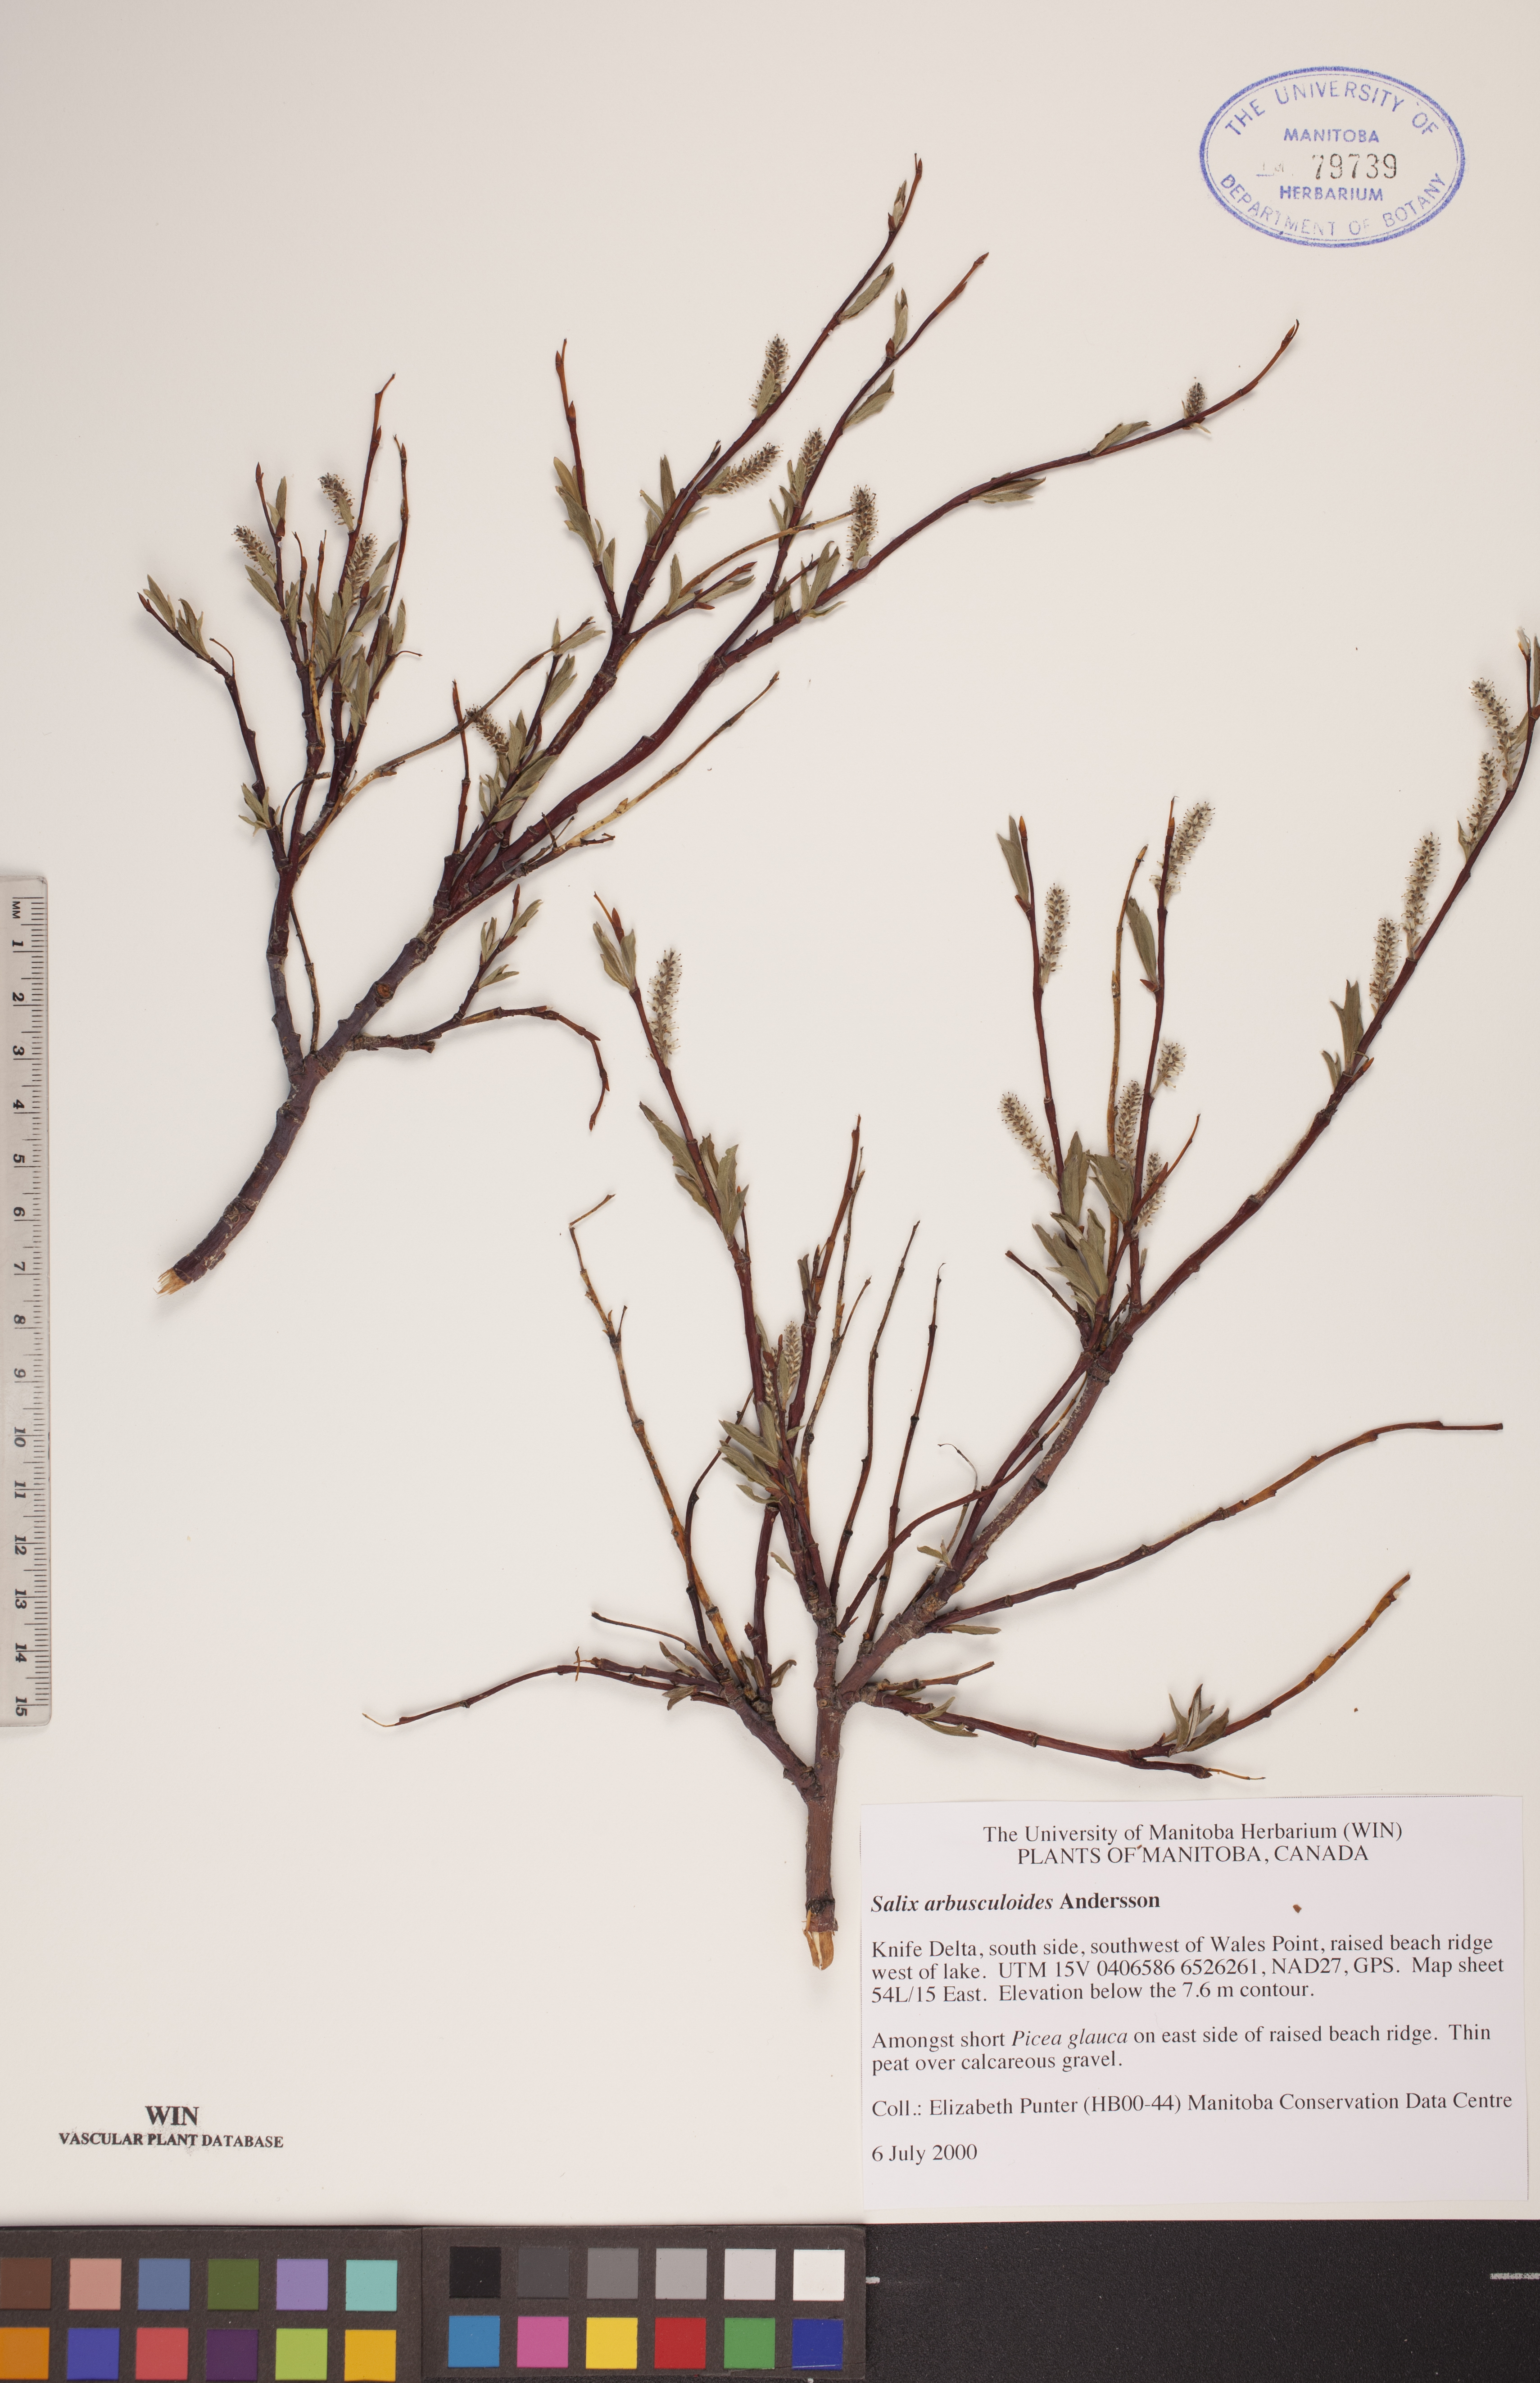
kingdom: Plantae
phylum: Tracheophyta
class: Magnoliopsida
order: Malpighiales
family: Salicaceae
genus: Salix
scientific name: Salix arbusculoides
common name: Little-tree willow
